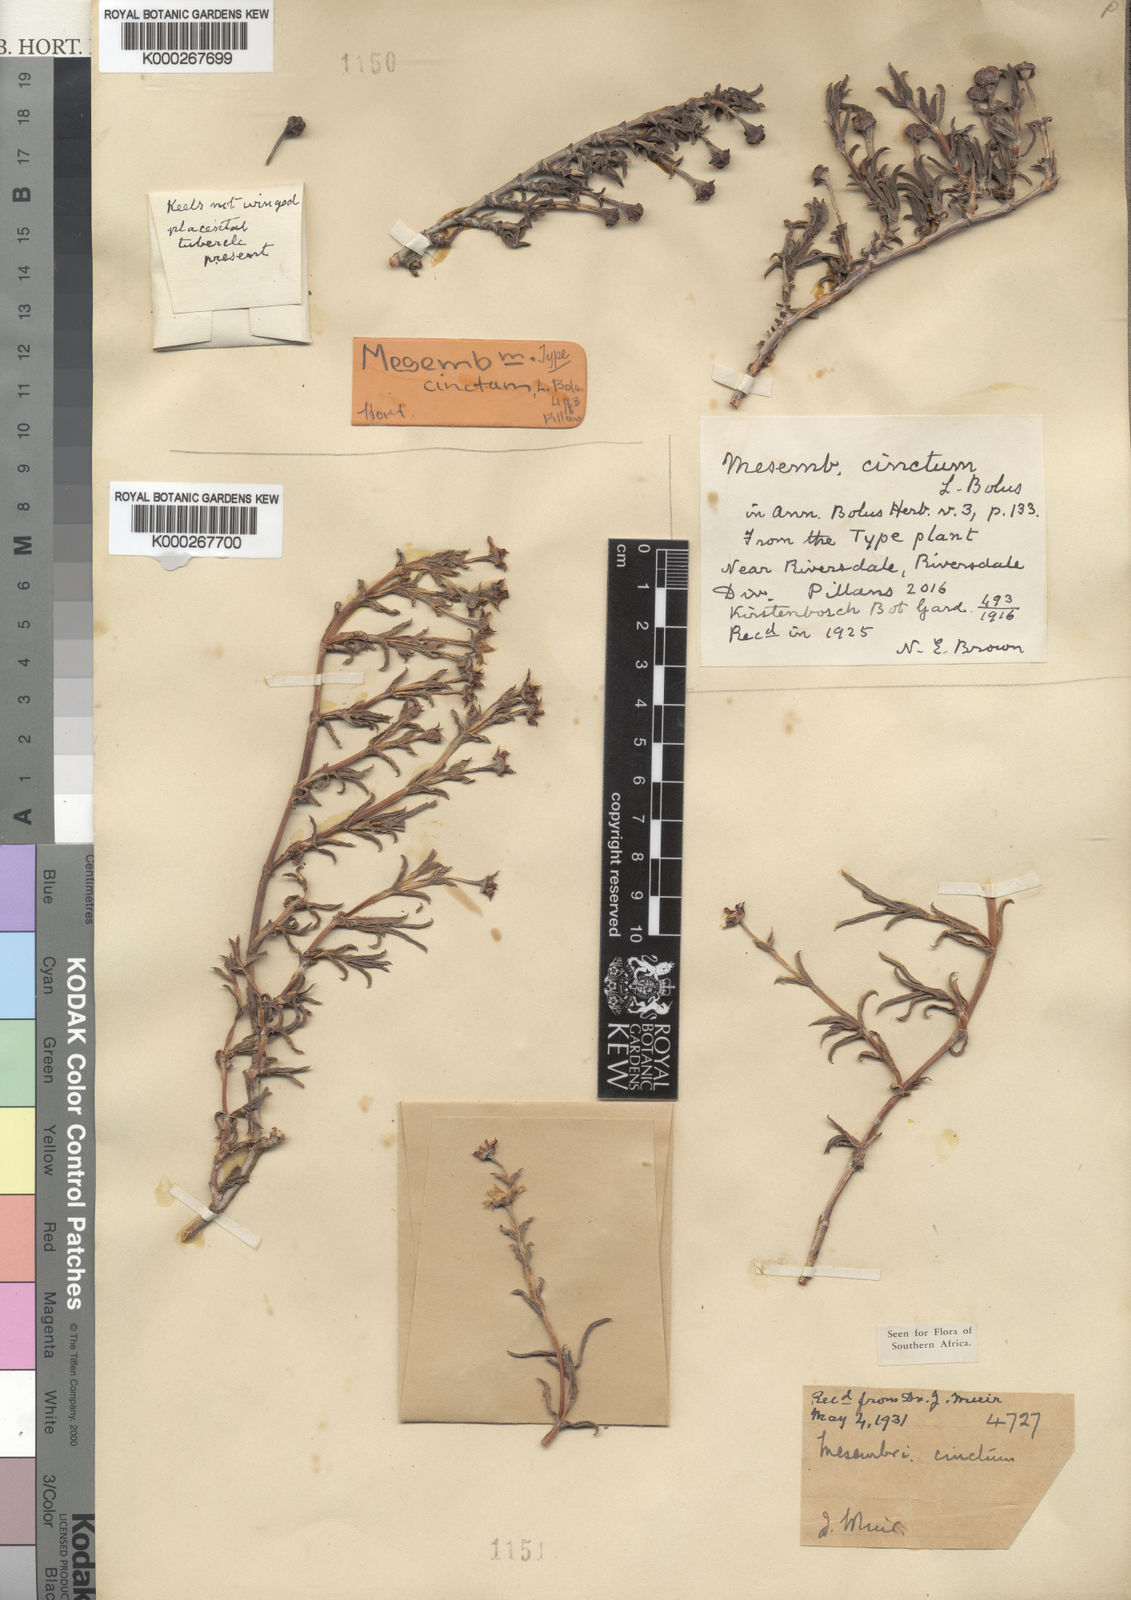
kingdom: Plantae
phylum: Tracheophyta
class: Magnoliopsida
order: Caryophyllales
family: Aizoaceae
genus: Ruschia
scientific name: Ruschia cincta
